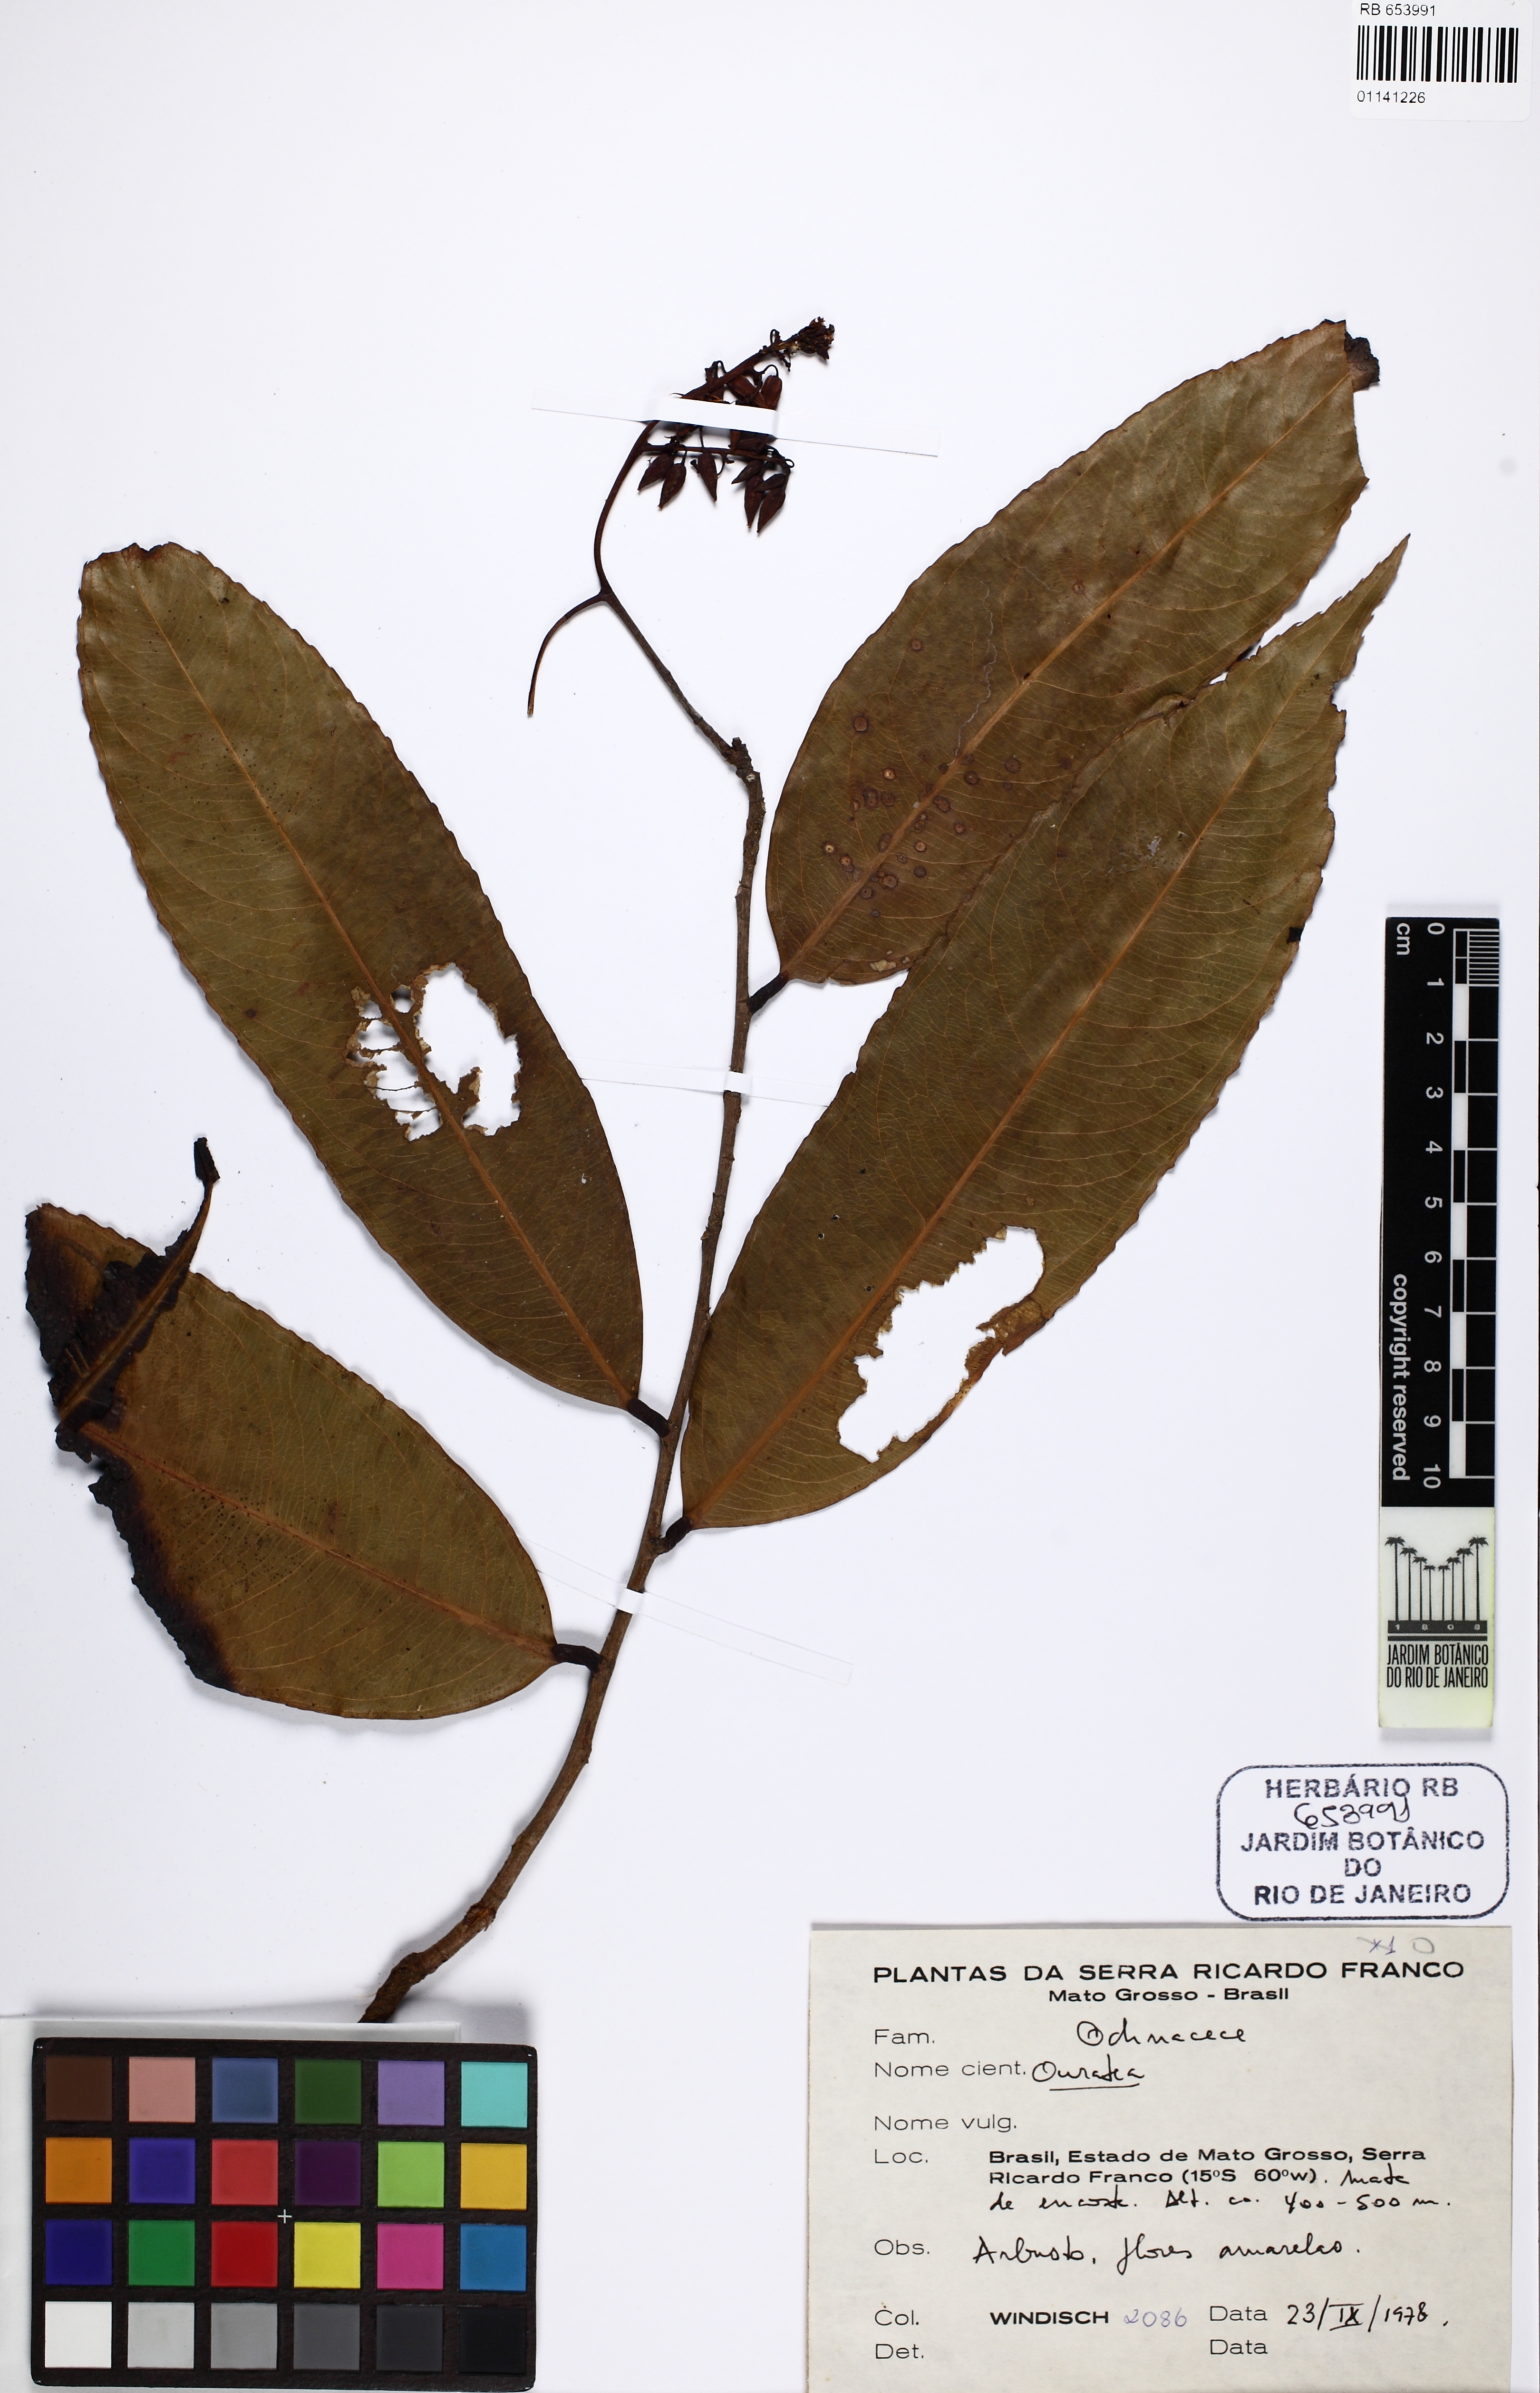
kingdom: Plantae
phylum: Tracheophyta
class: Magnoliopsida
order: Malpighiales
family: Ochnaceae
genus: Ouratea
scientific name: Ouratea
